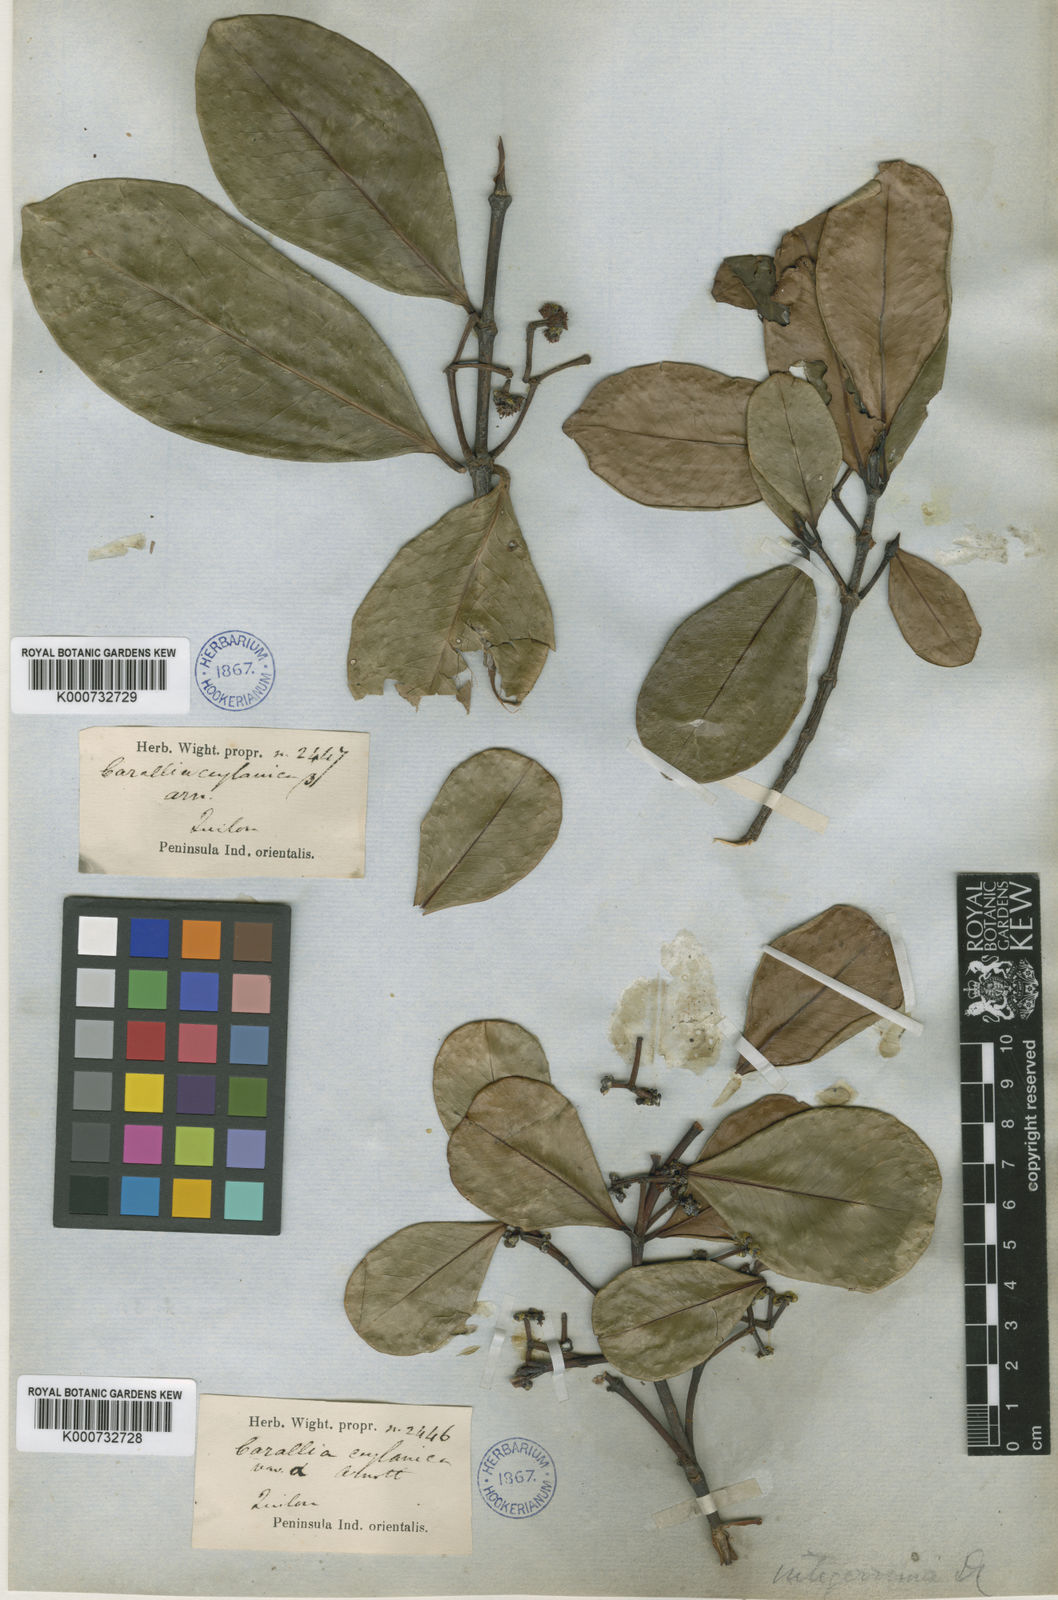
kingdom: Plantae
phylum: Tracheophyta
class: Magnoliopsida
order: Malpighiales
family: Rhizophoraceae
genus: Carallia
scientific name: Carallia brachiata
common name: Carallawood
